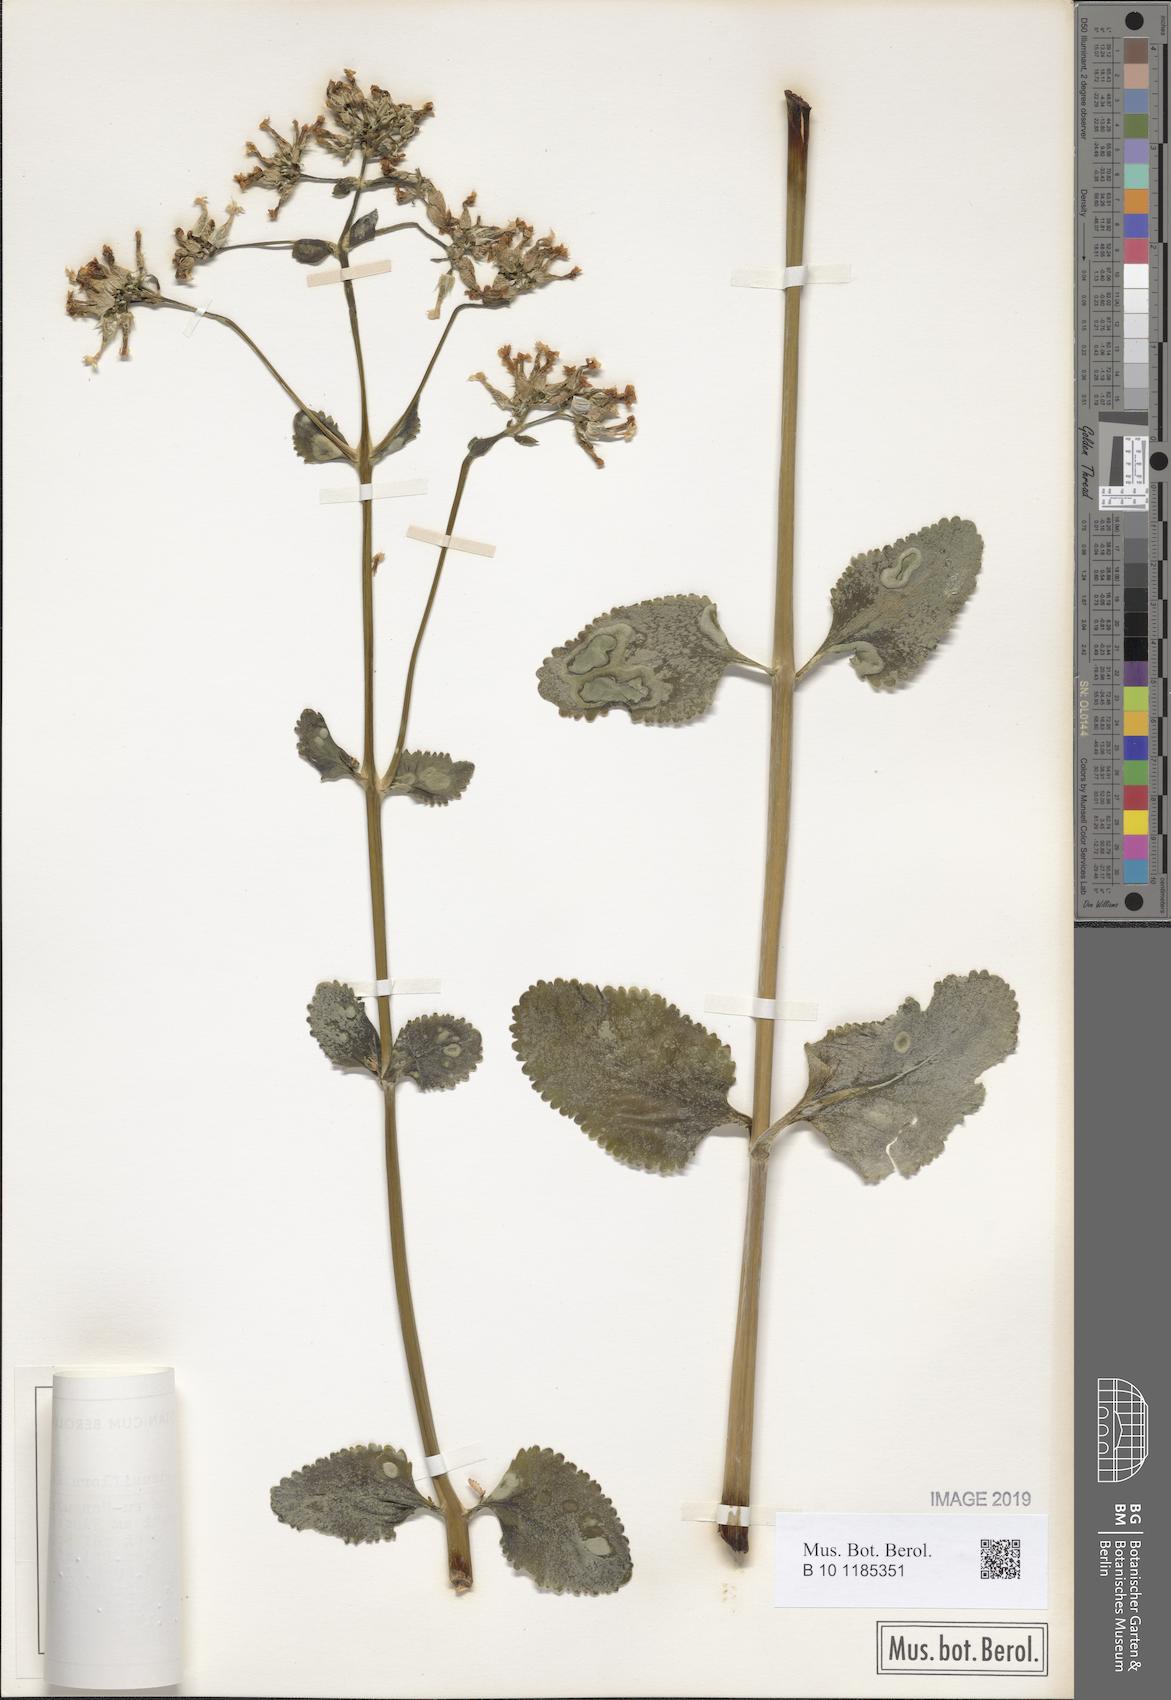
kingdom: Plantae
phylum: Tracheophyta
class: Magnoliopsida
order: Saxifragales
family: Crassulaceae
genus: Kalanchoe
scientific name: Kalanchoe densiflora
